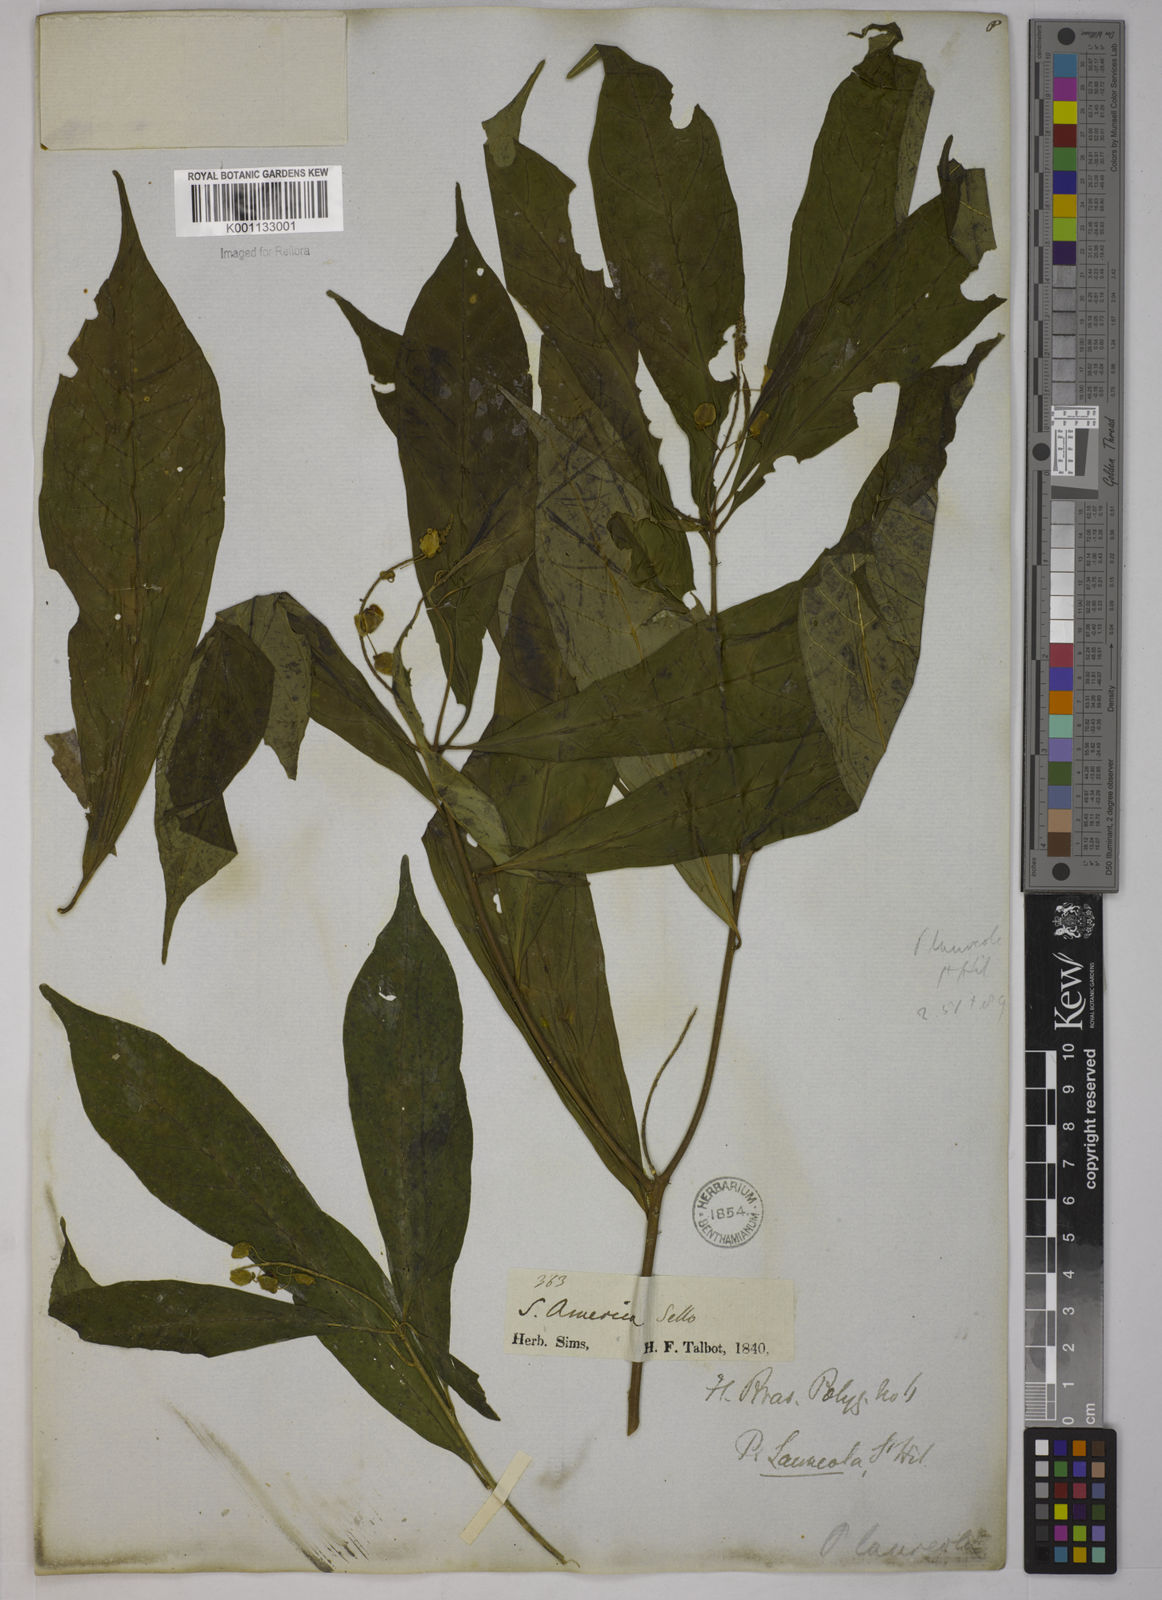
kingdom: Plantae
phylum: Tracheophyta
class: Magnoliopsida
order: Fabales
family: Polygalaceae
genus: Caamembeca
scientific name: Caamembeca salicifolia
